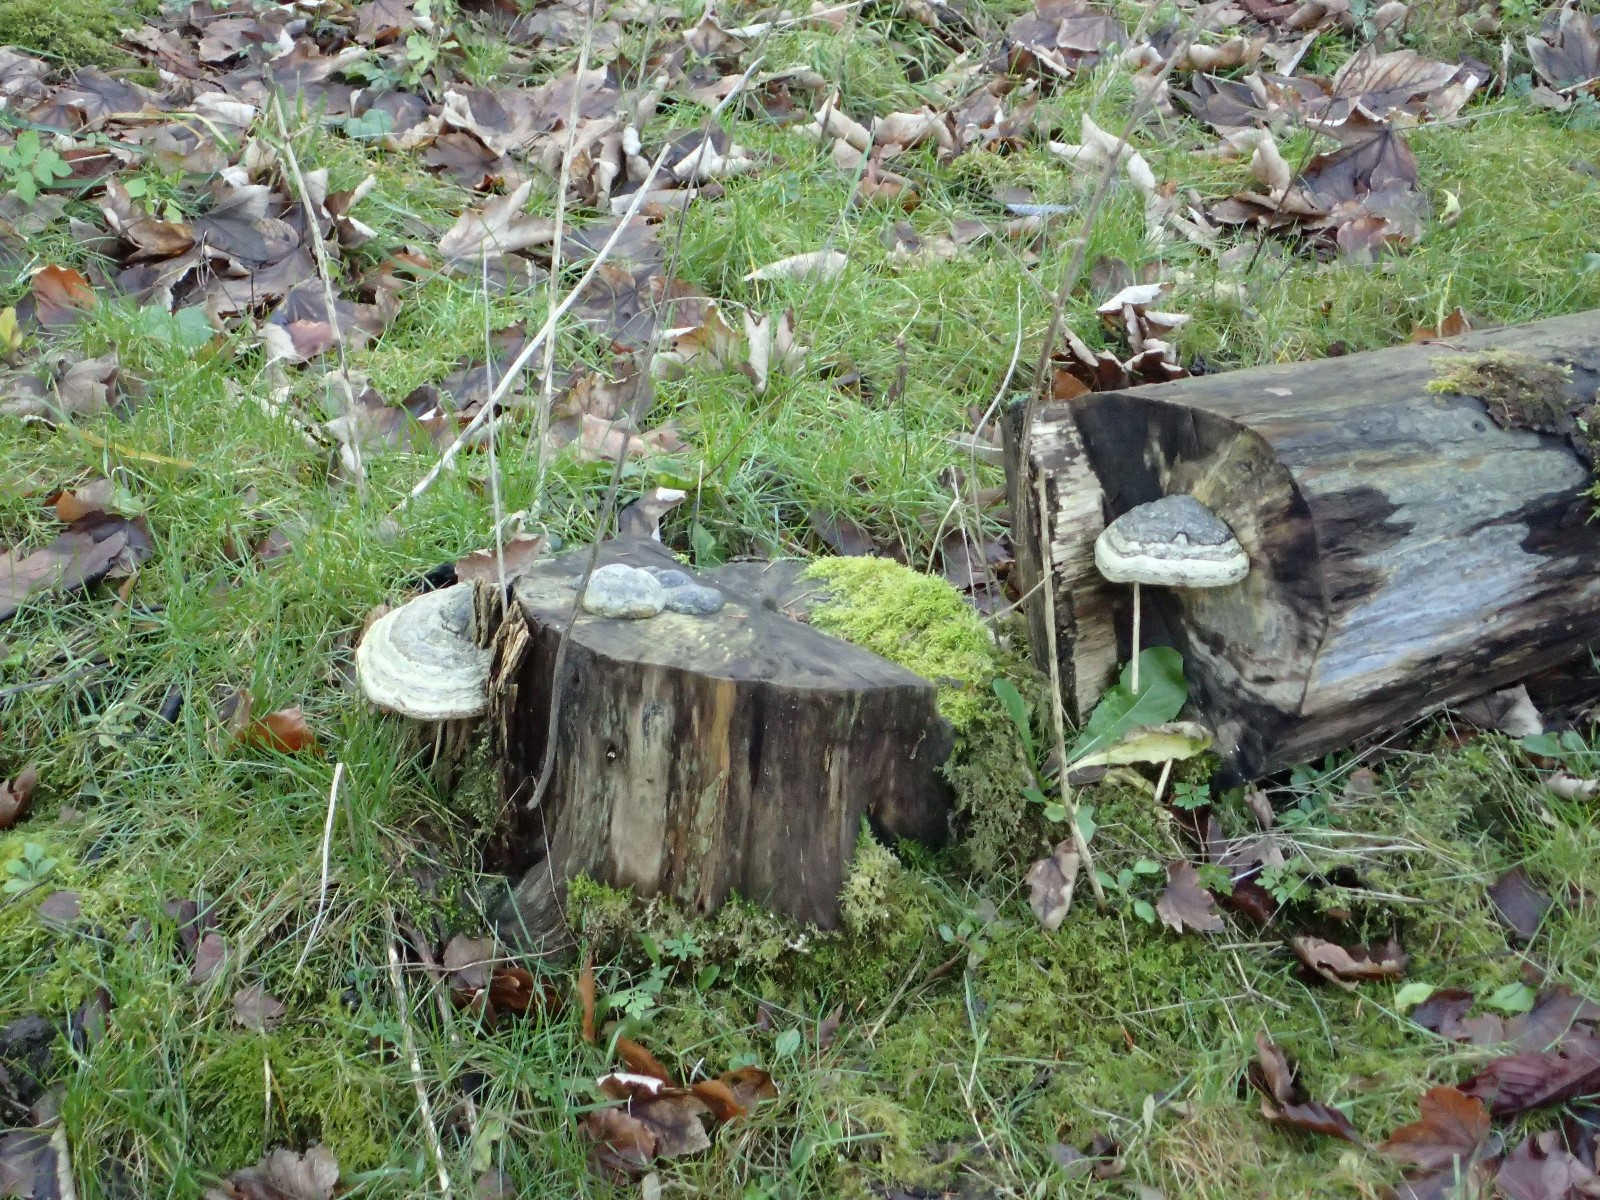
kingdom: Fungi
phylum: Basidiomycota
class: Agaricomycetes
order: Polyporales
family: Polyporaceae
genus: Fomes
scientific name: Fomes fomentarius
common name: tøndersvamp
